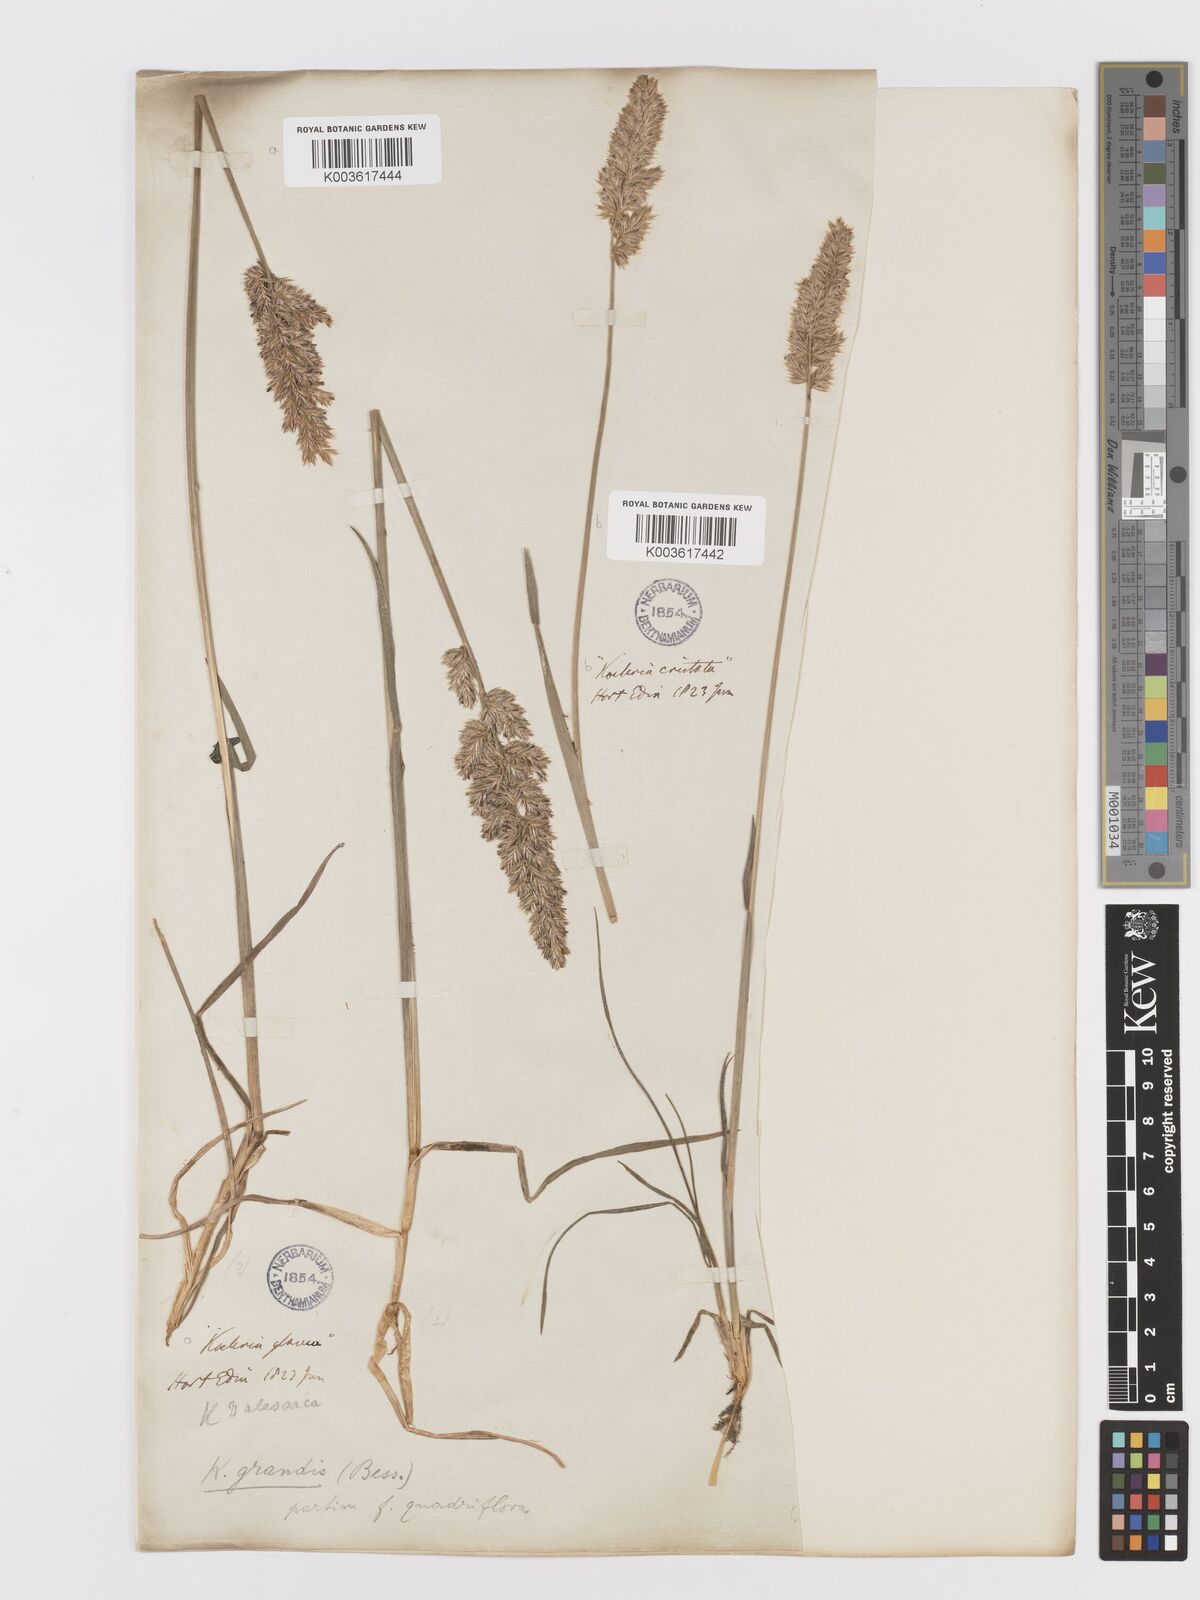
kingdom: Plantae
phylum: Tracheophyta
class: Liliopsida
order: Poales
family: Poaceae
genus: Koeleria
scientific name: Koeleria pyramidata
